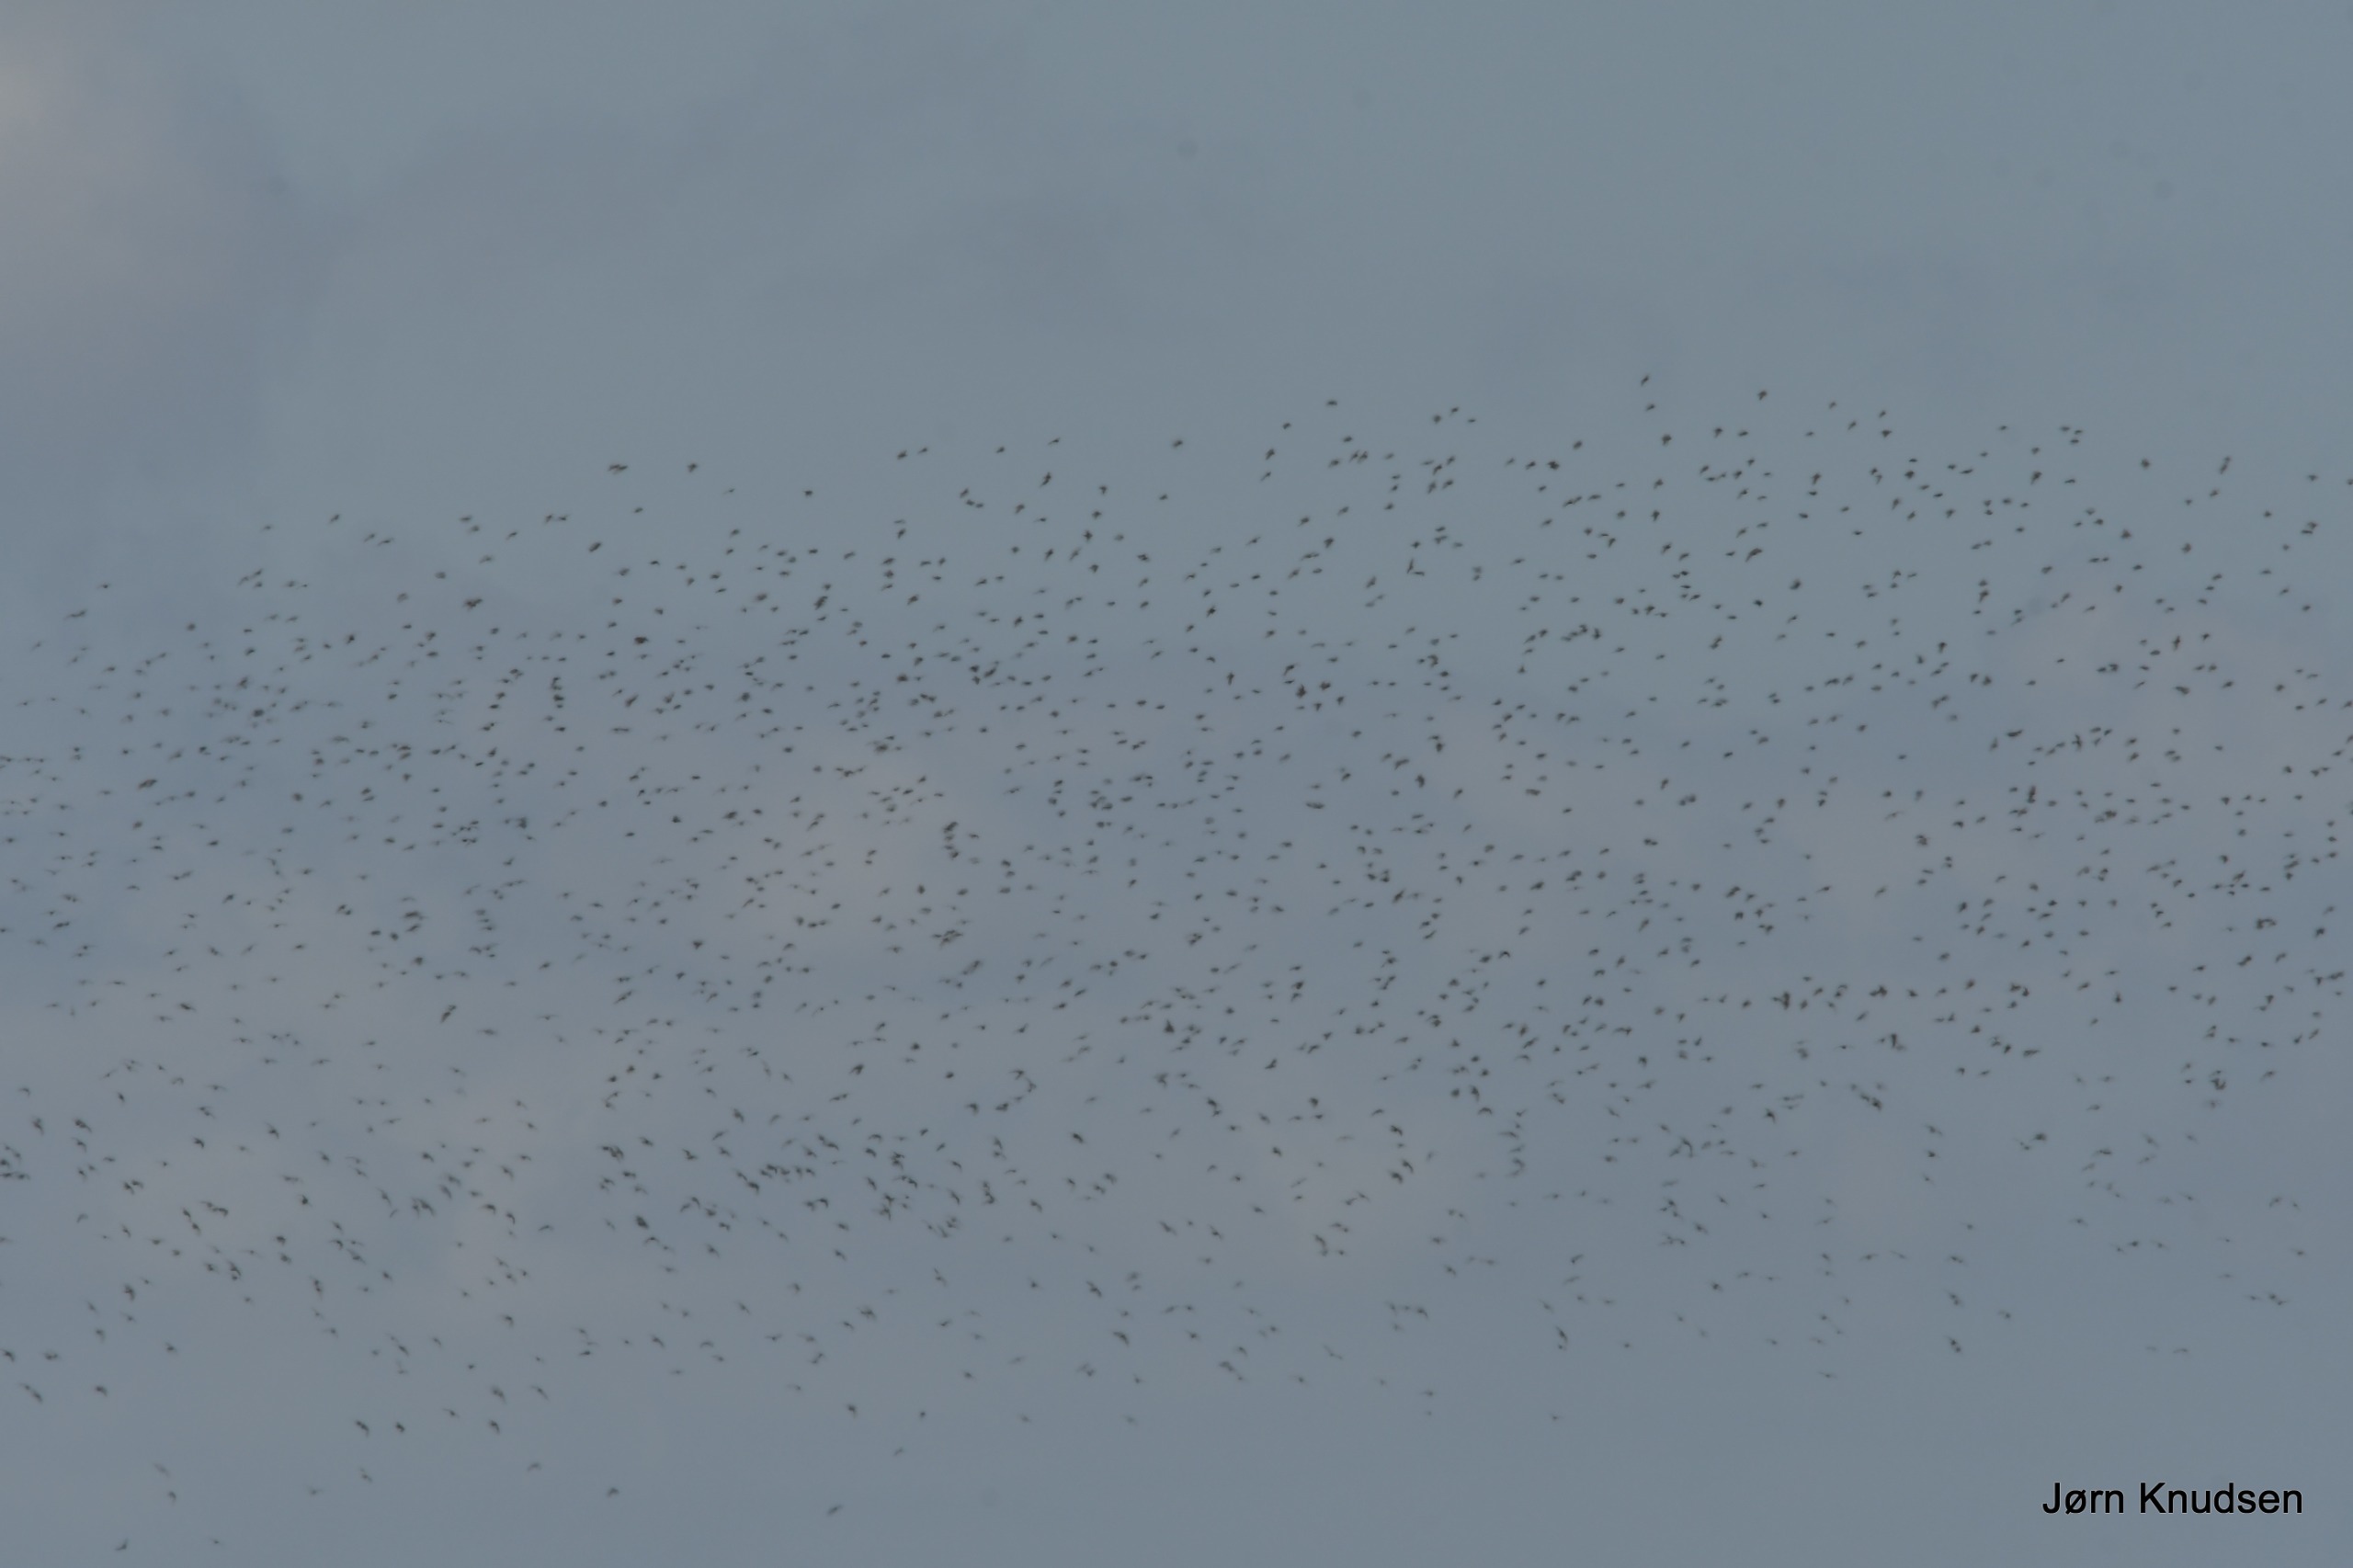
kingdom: Animalia
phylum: Chordata
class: Aves
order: Charadriiformes
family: Charadriidae
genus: Pluvialis
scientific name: Pluvialis apricaria
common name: Hjejle
